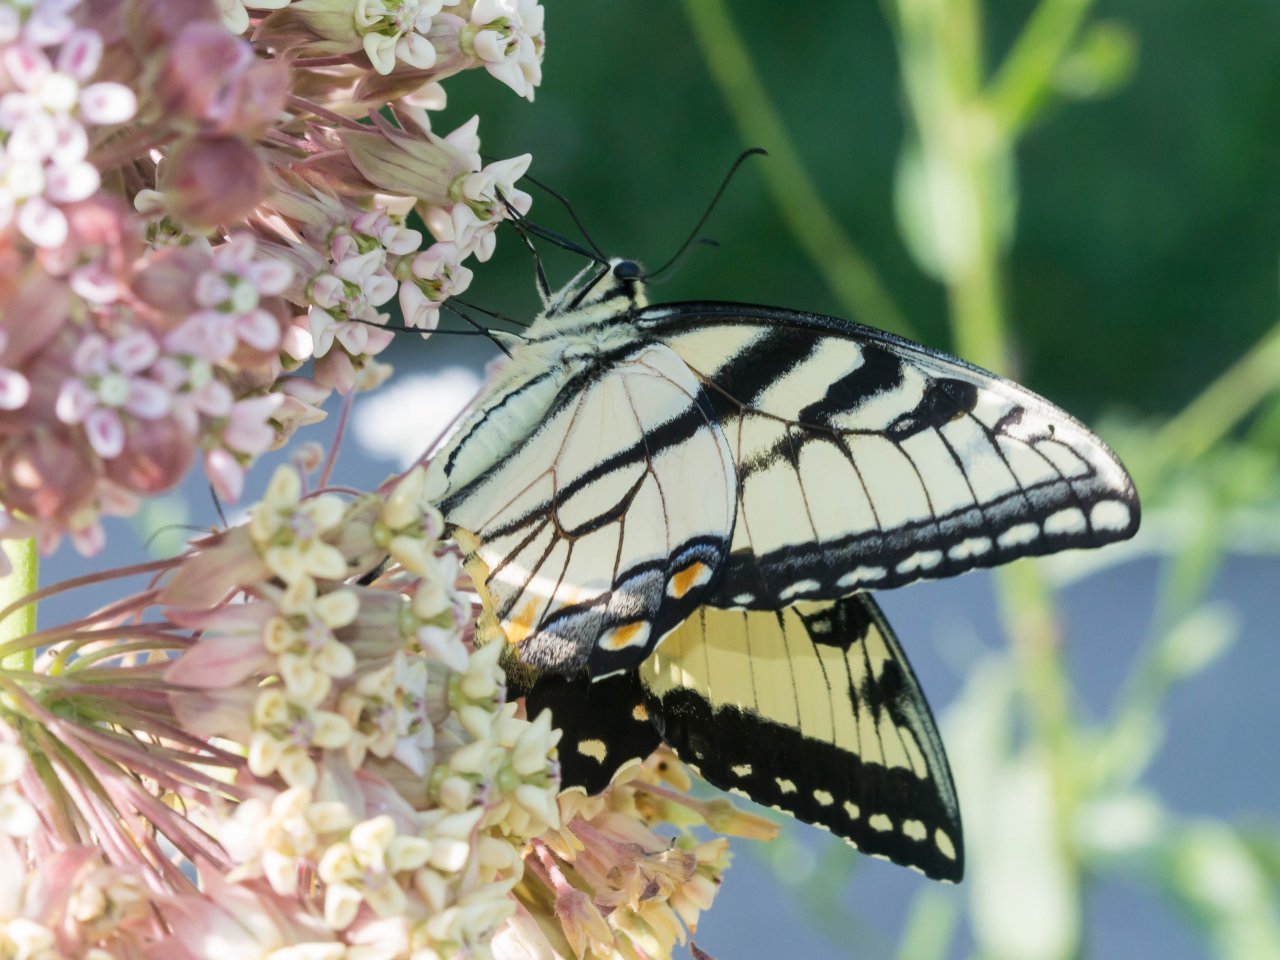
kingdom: Animalia
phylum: Arthropoda
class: Insecta
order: Lepidoptera
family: Papilionidae
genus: Pterourus
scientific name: Pterourus glaucus
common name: Eastern Tiger Swallowtail
